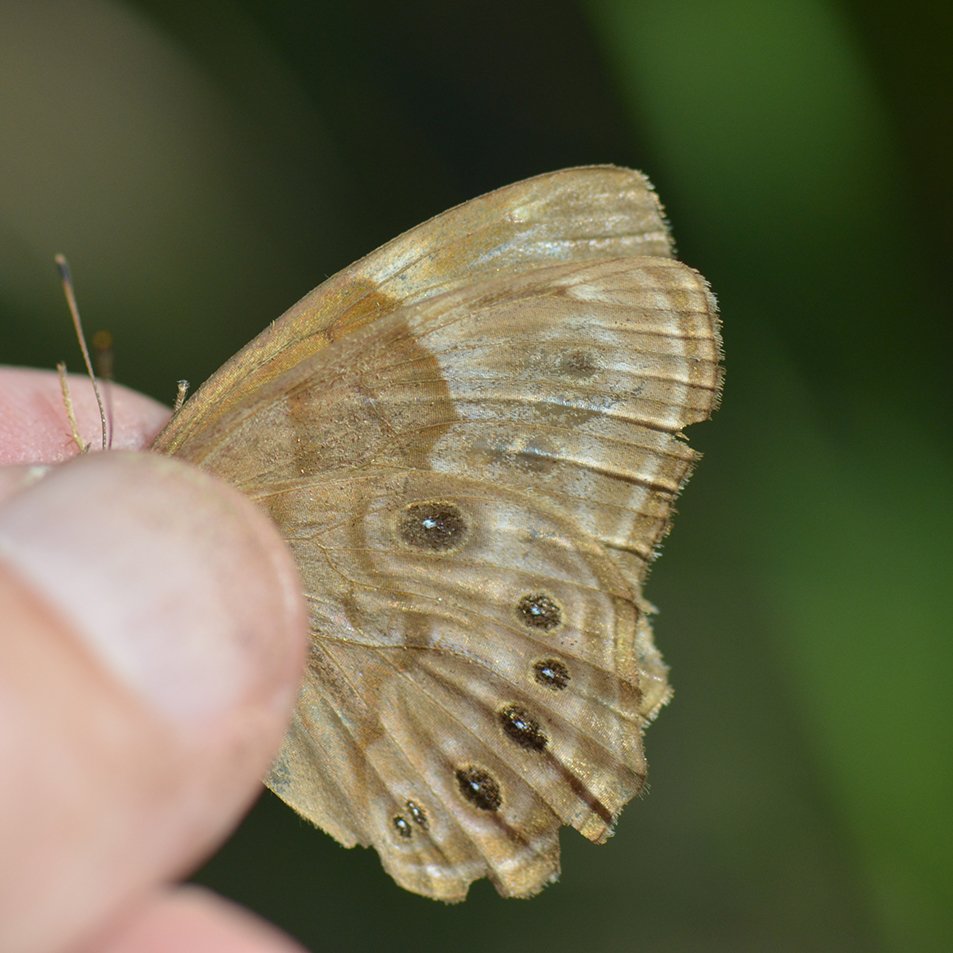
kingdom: Animalia
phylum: Arthropoda
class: Insecta
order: Lepidoptera
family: Nymphalidae
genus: Lethe
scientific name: Lethe anthedon
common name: Northern Pearly-Eye
